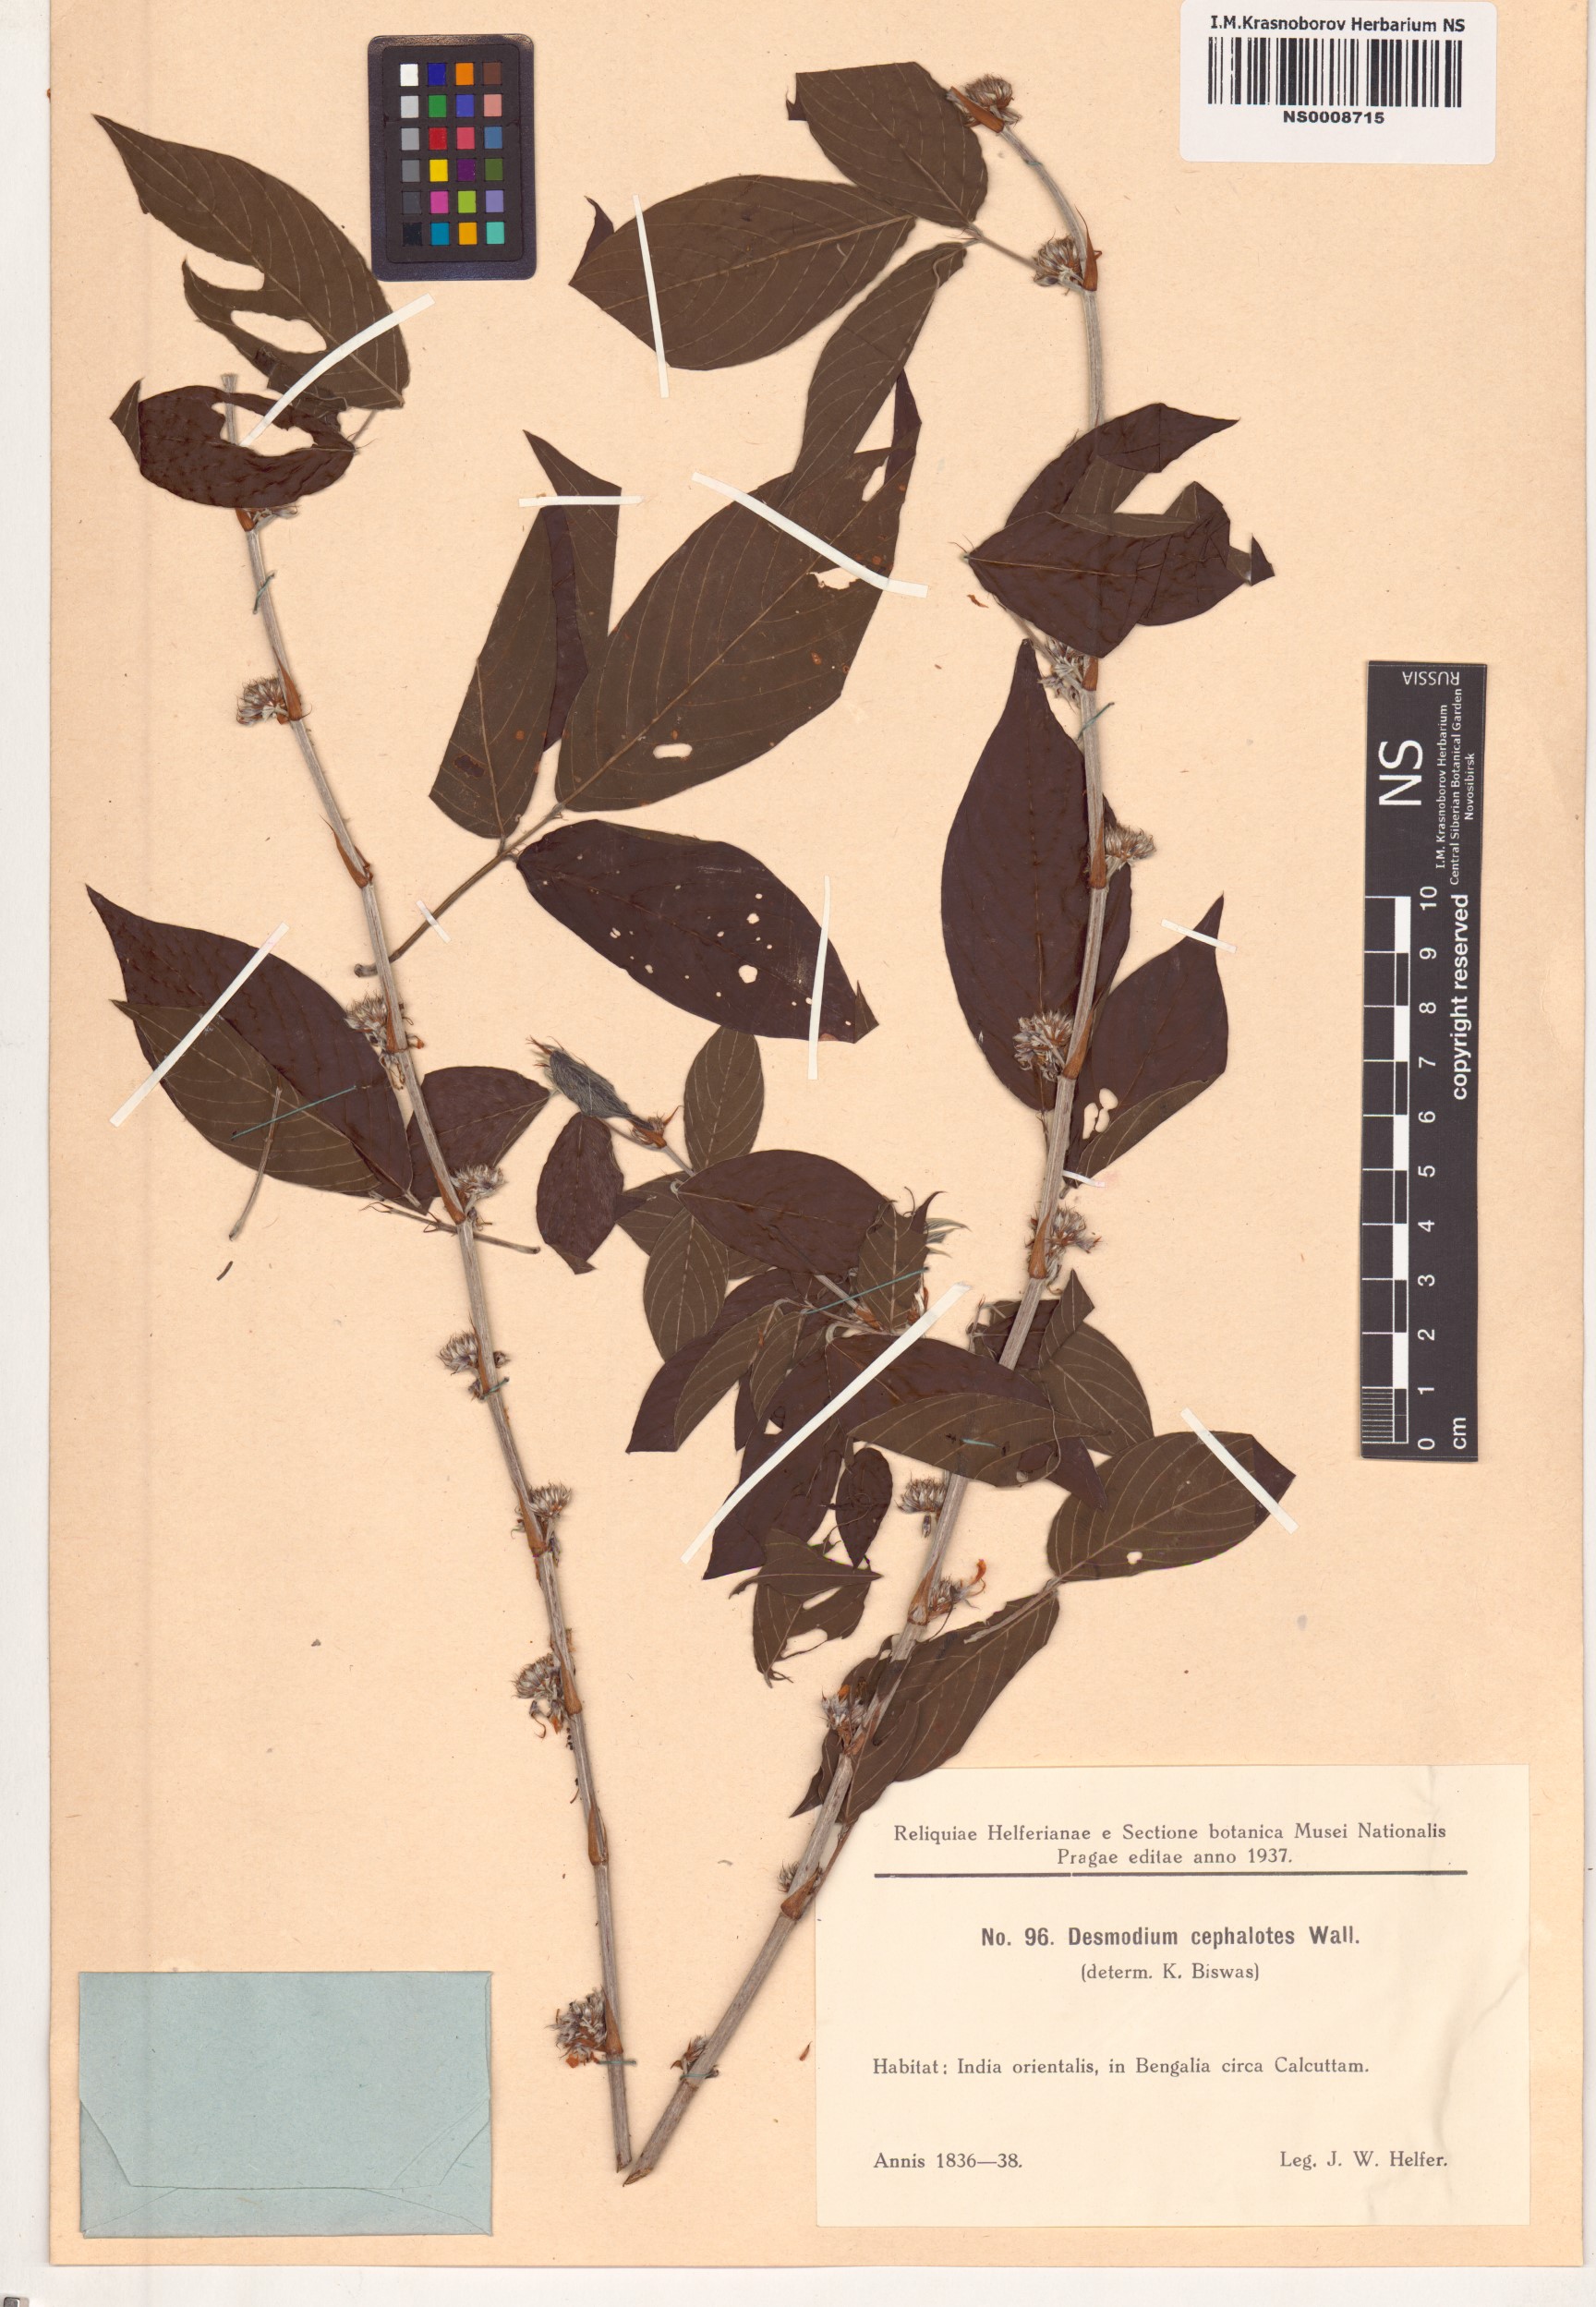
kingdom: Plantae
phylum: Tracheophyta
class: Magnoliopsida
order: Fabales
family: Fabaceae
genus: Dendrolobium
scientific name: Dendrolobium triangulare
